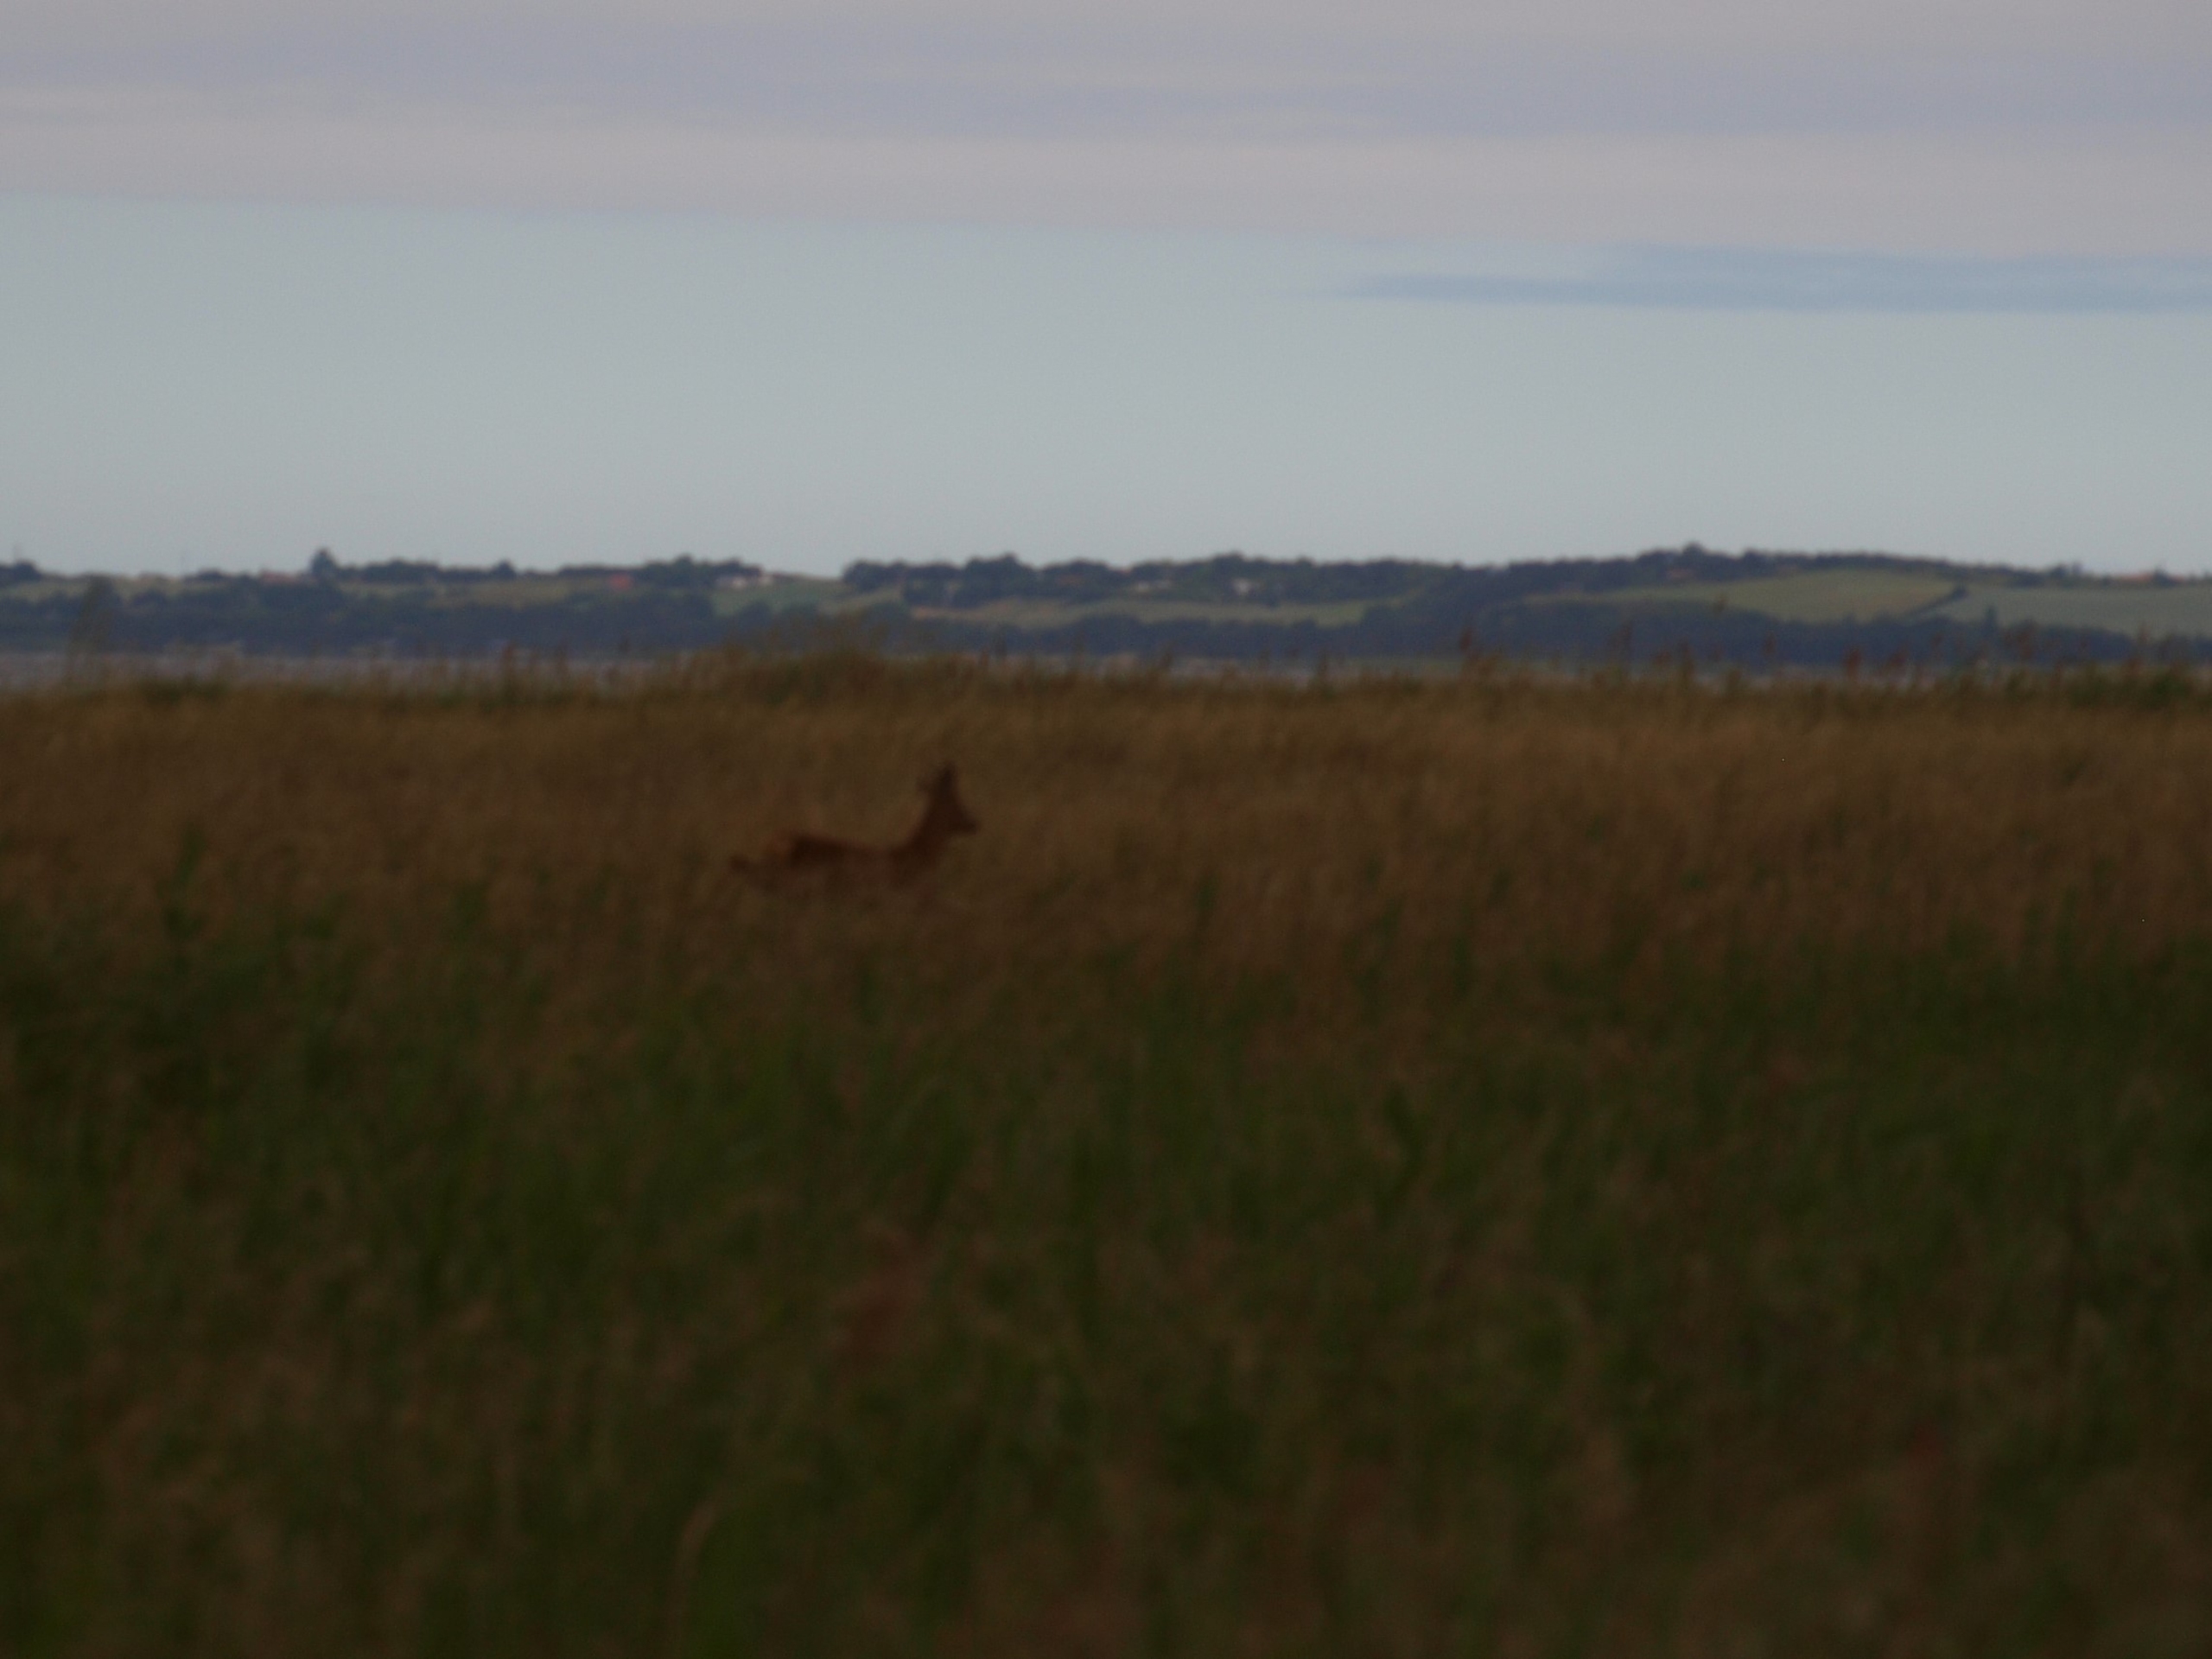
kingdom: Animalia
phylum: Chordata
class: Mammalia
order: Artiodactyla
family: Cervidae
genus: Capreolus
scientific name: Capreolus capreolus
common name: Rådyr
